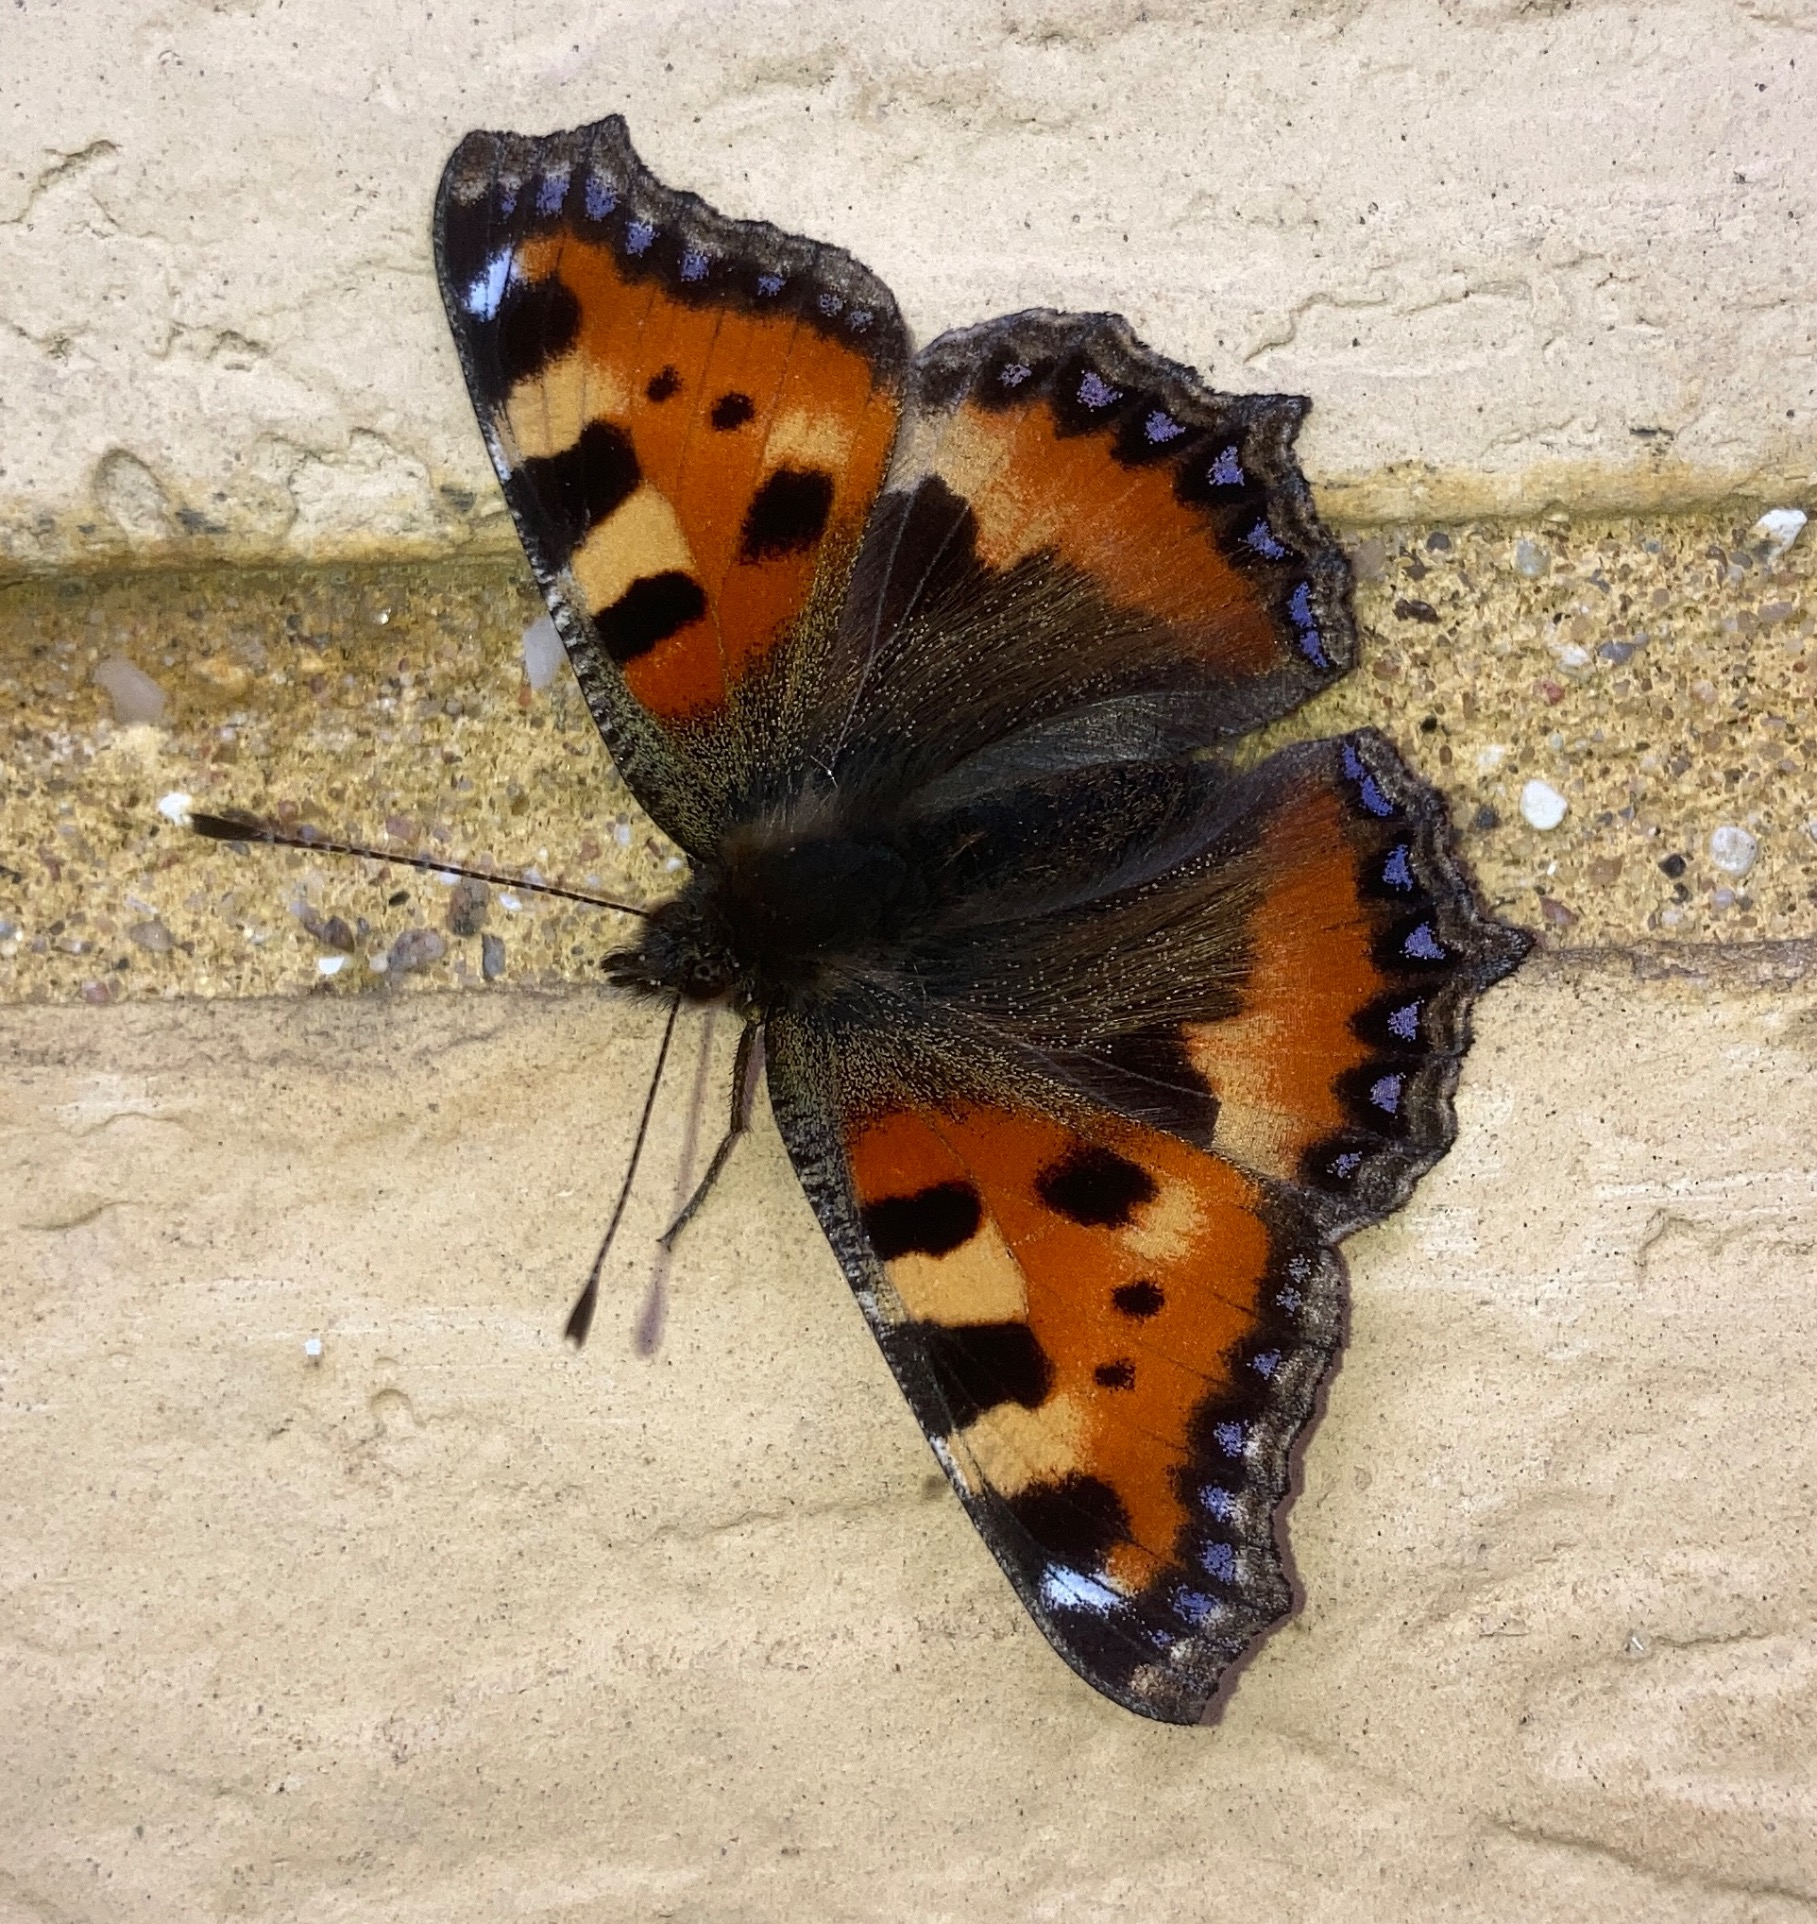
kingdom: Animalia
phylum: Arthropoda
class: Insecta
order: Lepidoptera
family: Nymphalidae
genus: Aglais
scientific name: Aglais urticae
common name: Nældens takvinge
